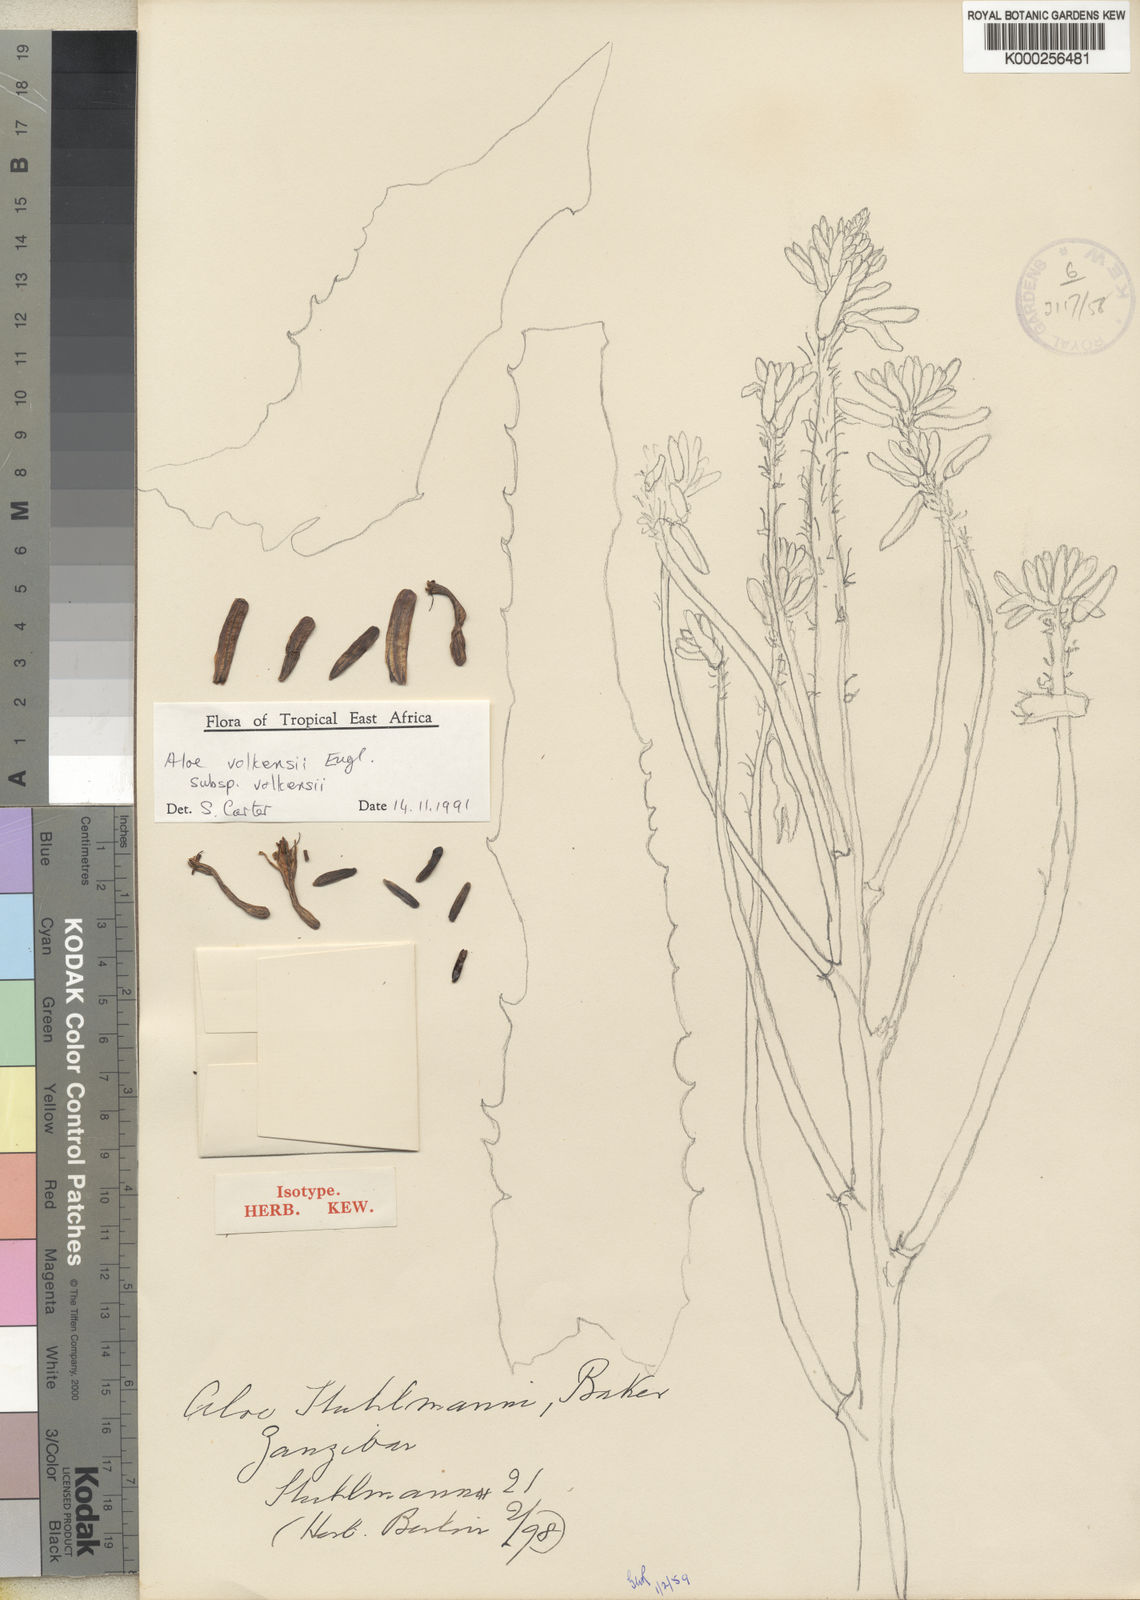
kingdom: Plantae
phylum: Tracheophyta
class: Liliopsida
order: Asparagales
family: Asphodelaceae
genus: Aloe
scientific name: Aloe volkensii
